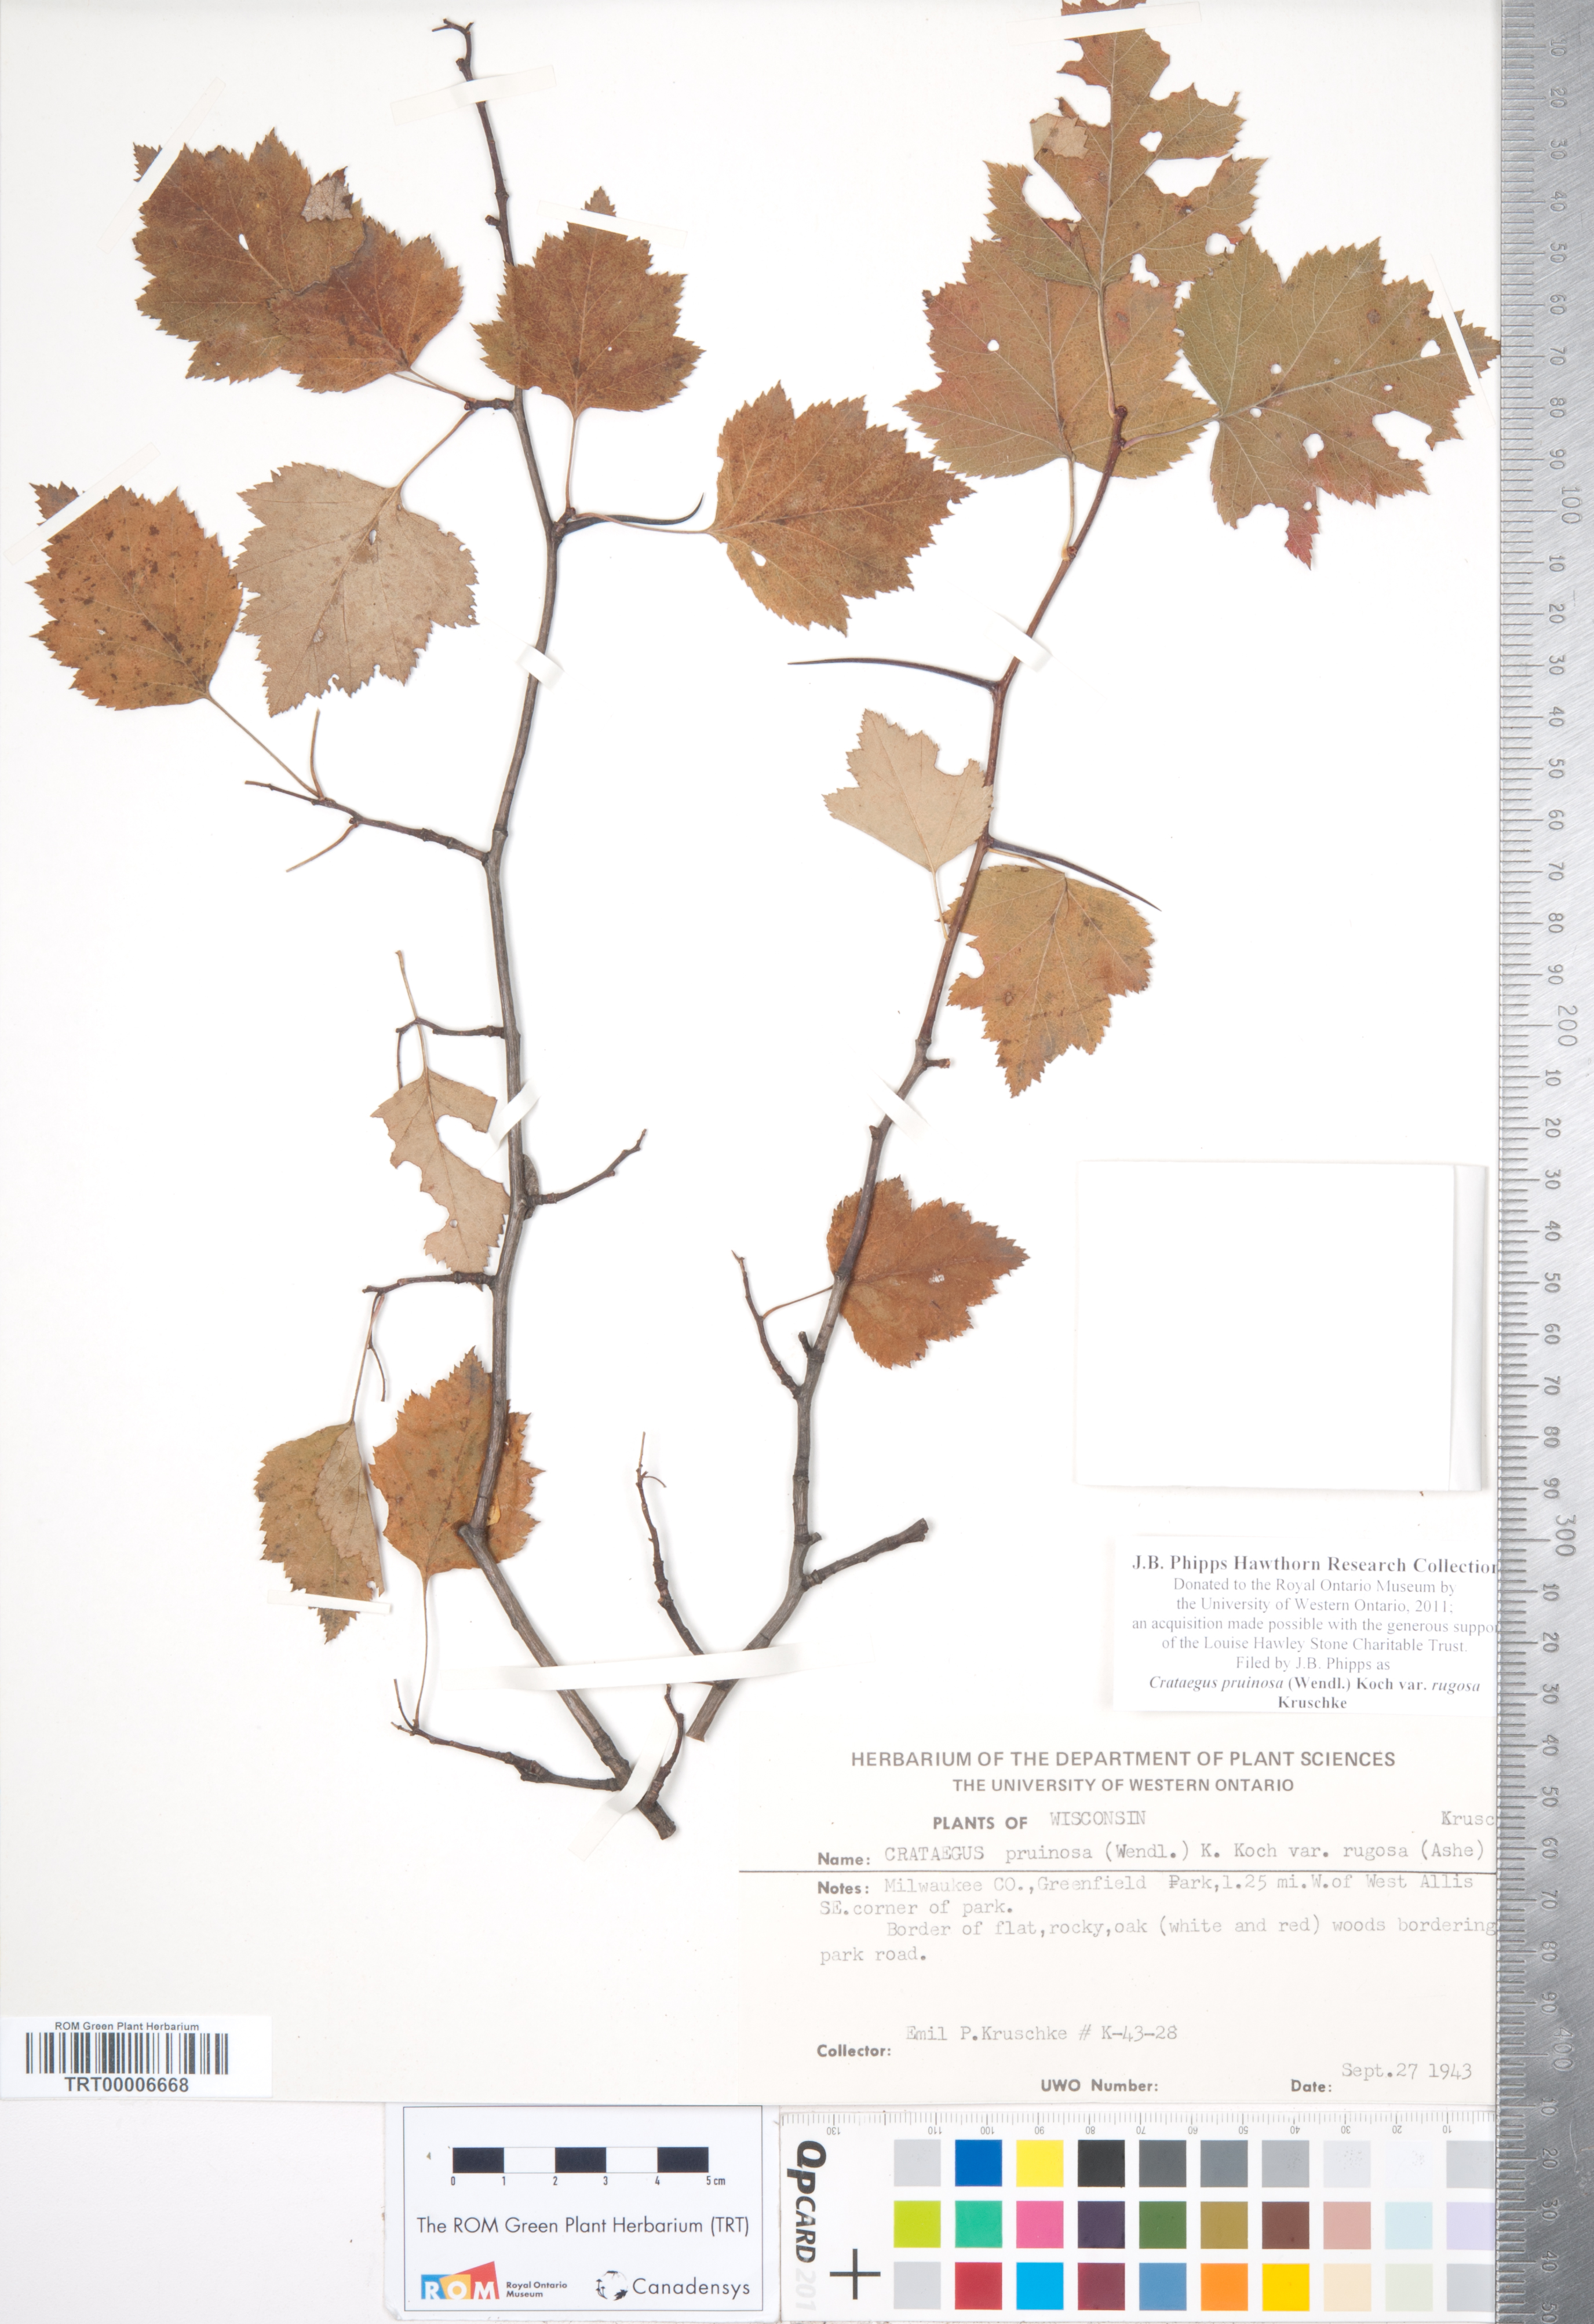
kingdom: Plantae
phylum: Tracheophyta
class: Magnoliopsida
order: Rosales
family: Rosaceae
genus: Crataegus
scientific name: Crataegus pruinosa
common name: Waxy-fruit hawthorn
